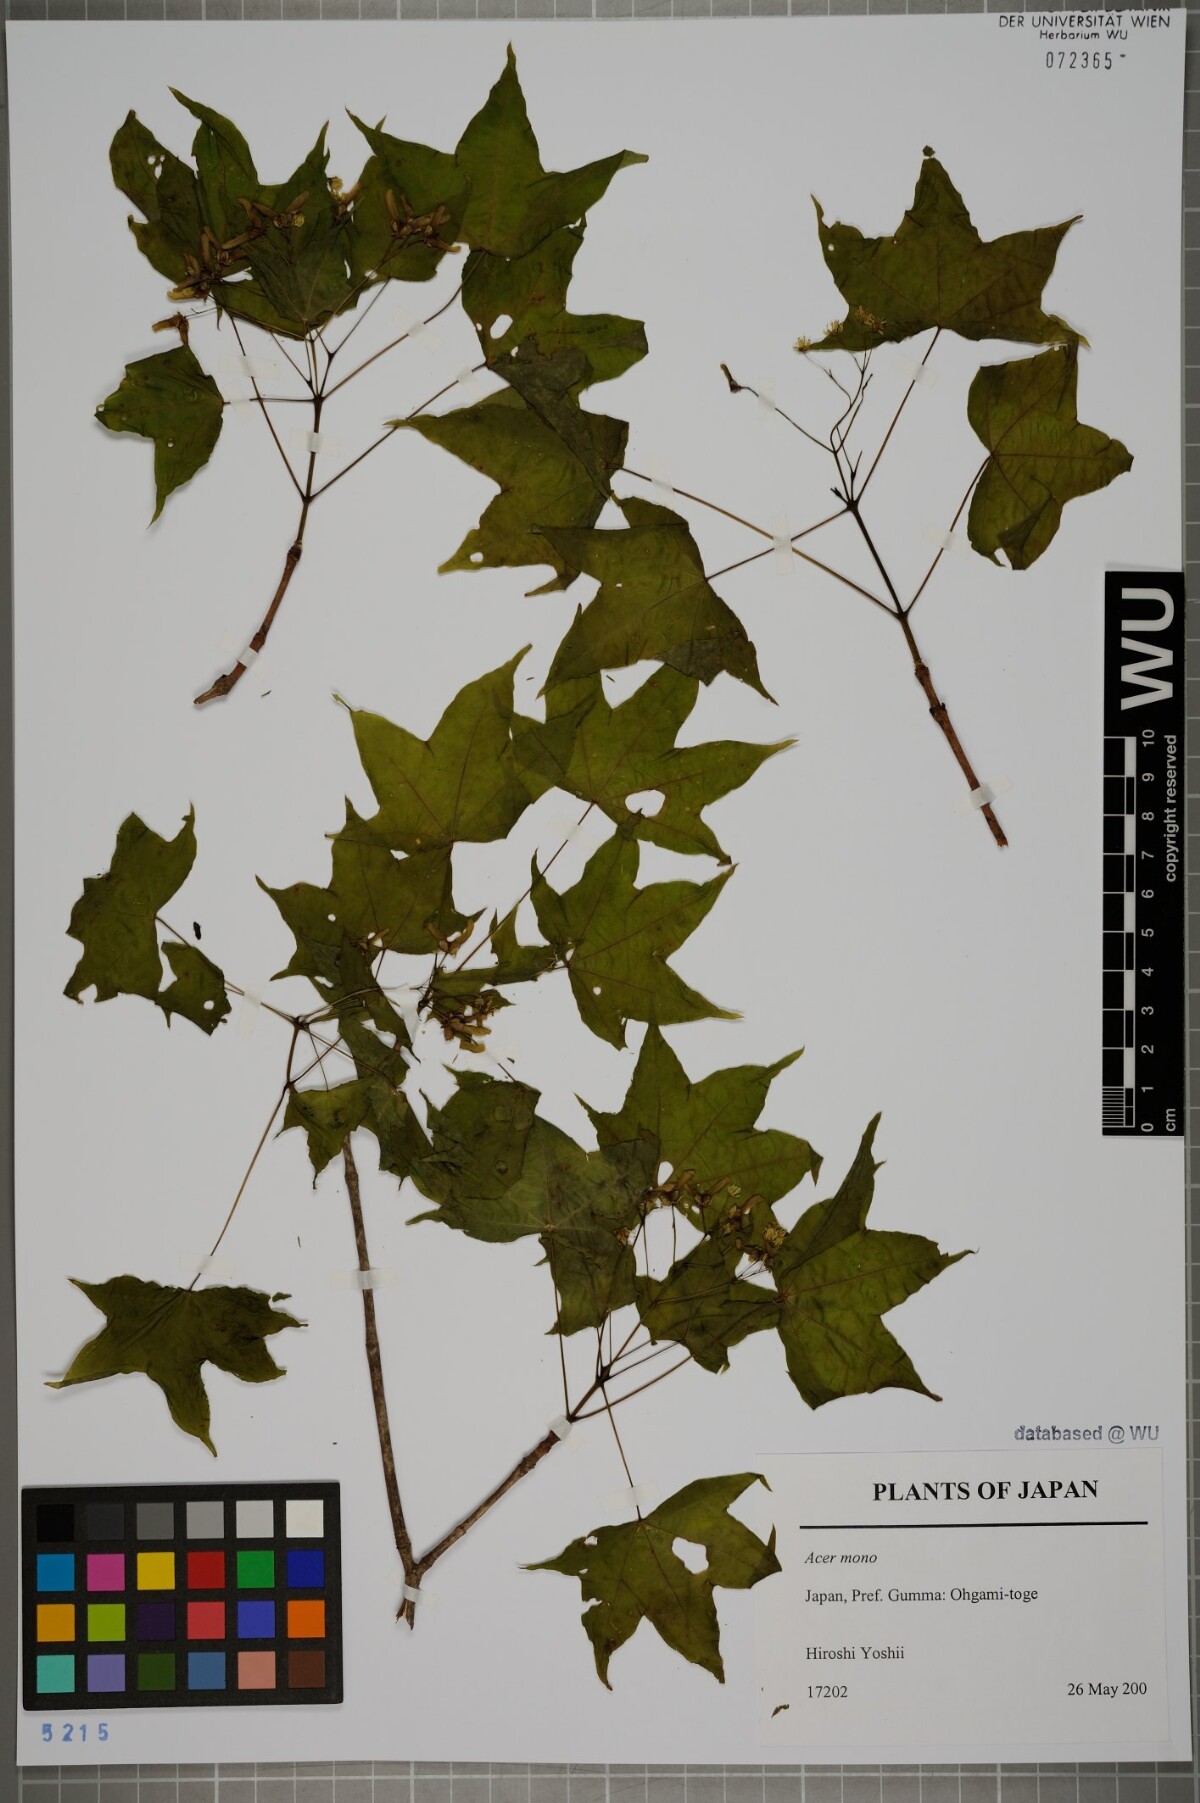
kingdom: Plantae
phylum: Tracheophyta
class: Magnoliopsida
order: Sapindales
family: Sapindaceae
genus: Acer
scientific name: Acer pictum
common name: The painted maple
